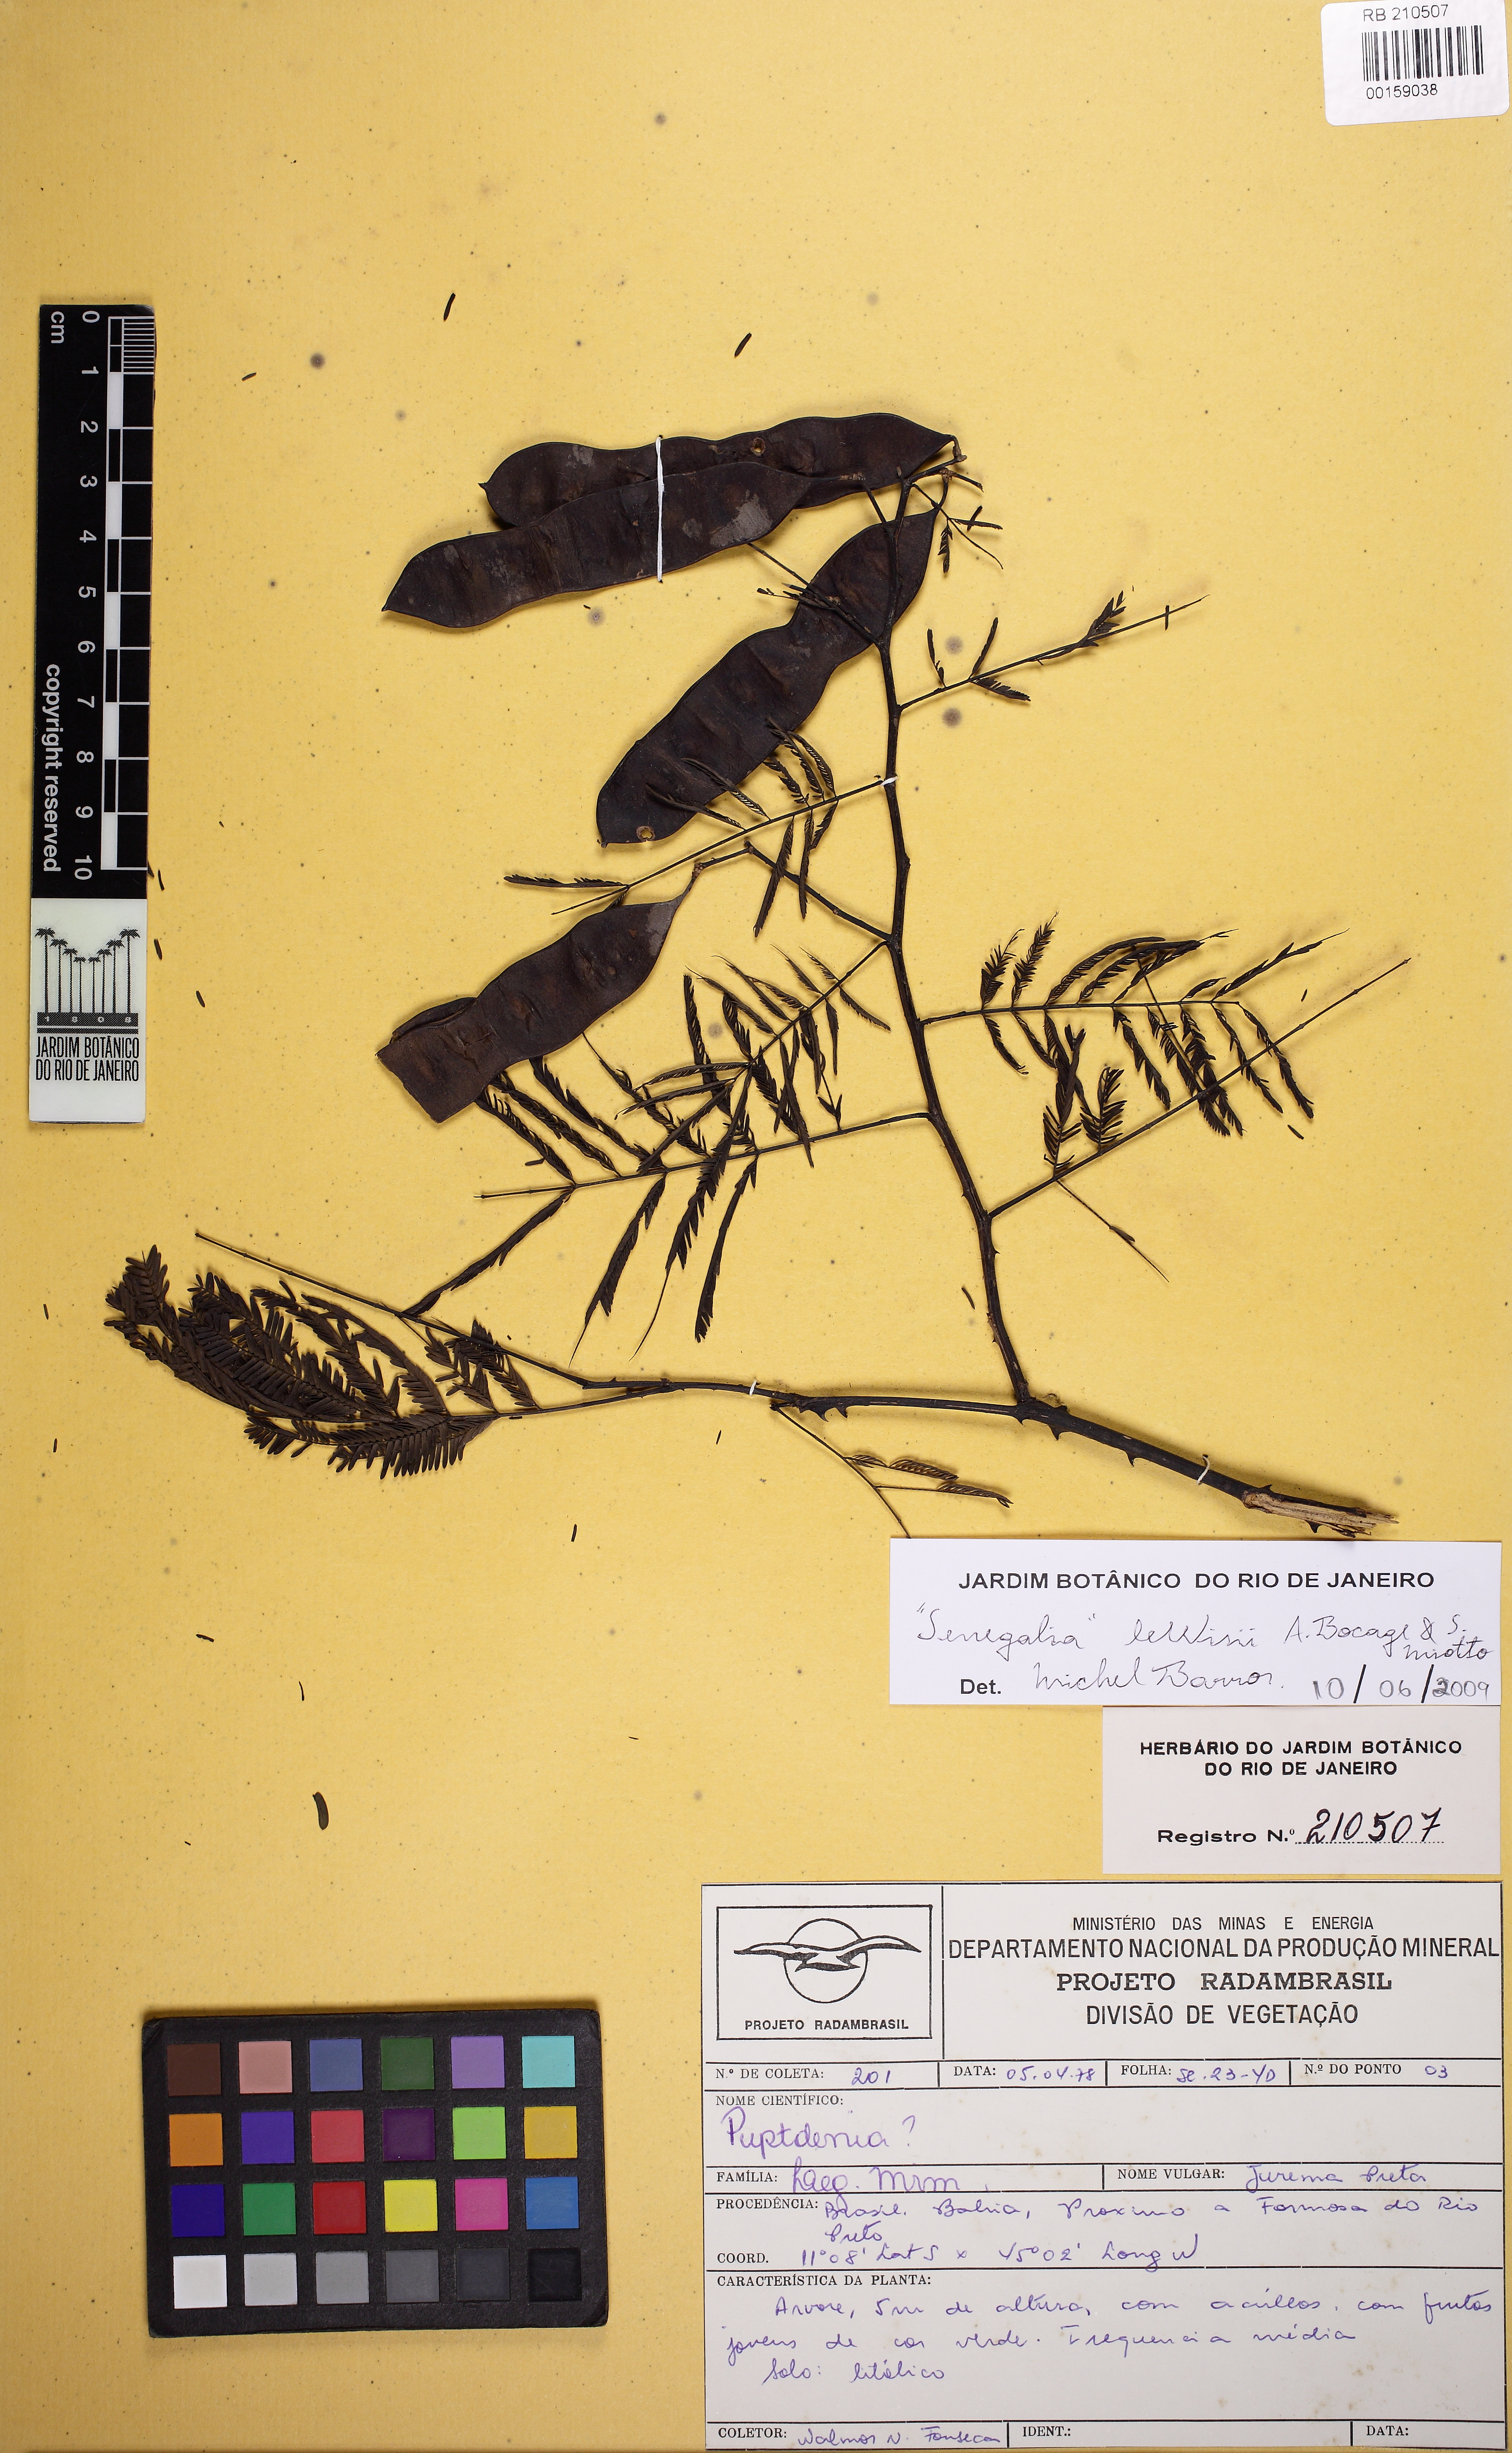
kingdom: Plantae
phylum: Tracheophyta
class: Magnoliopsida
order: Fabales
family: Fabaceae
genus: Senegalia
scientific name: Senegalia fiebrigii
